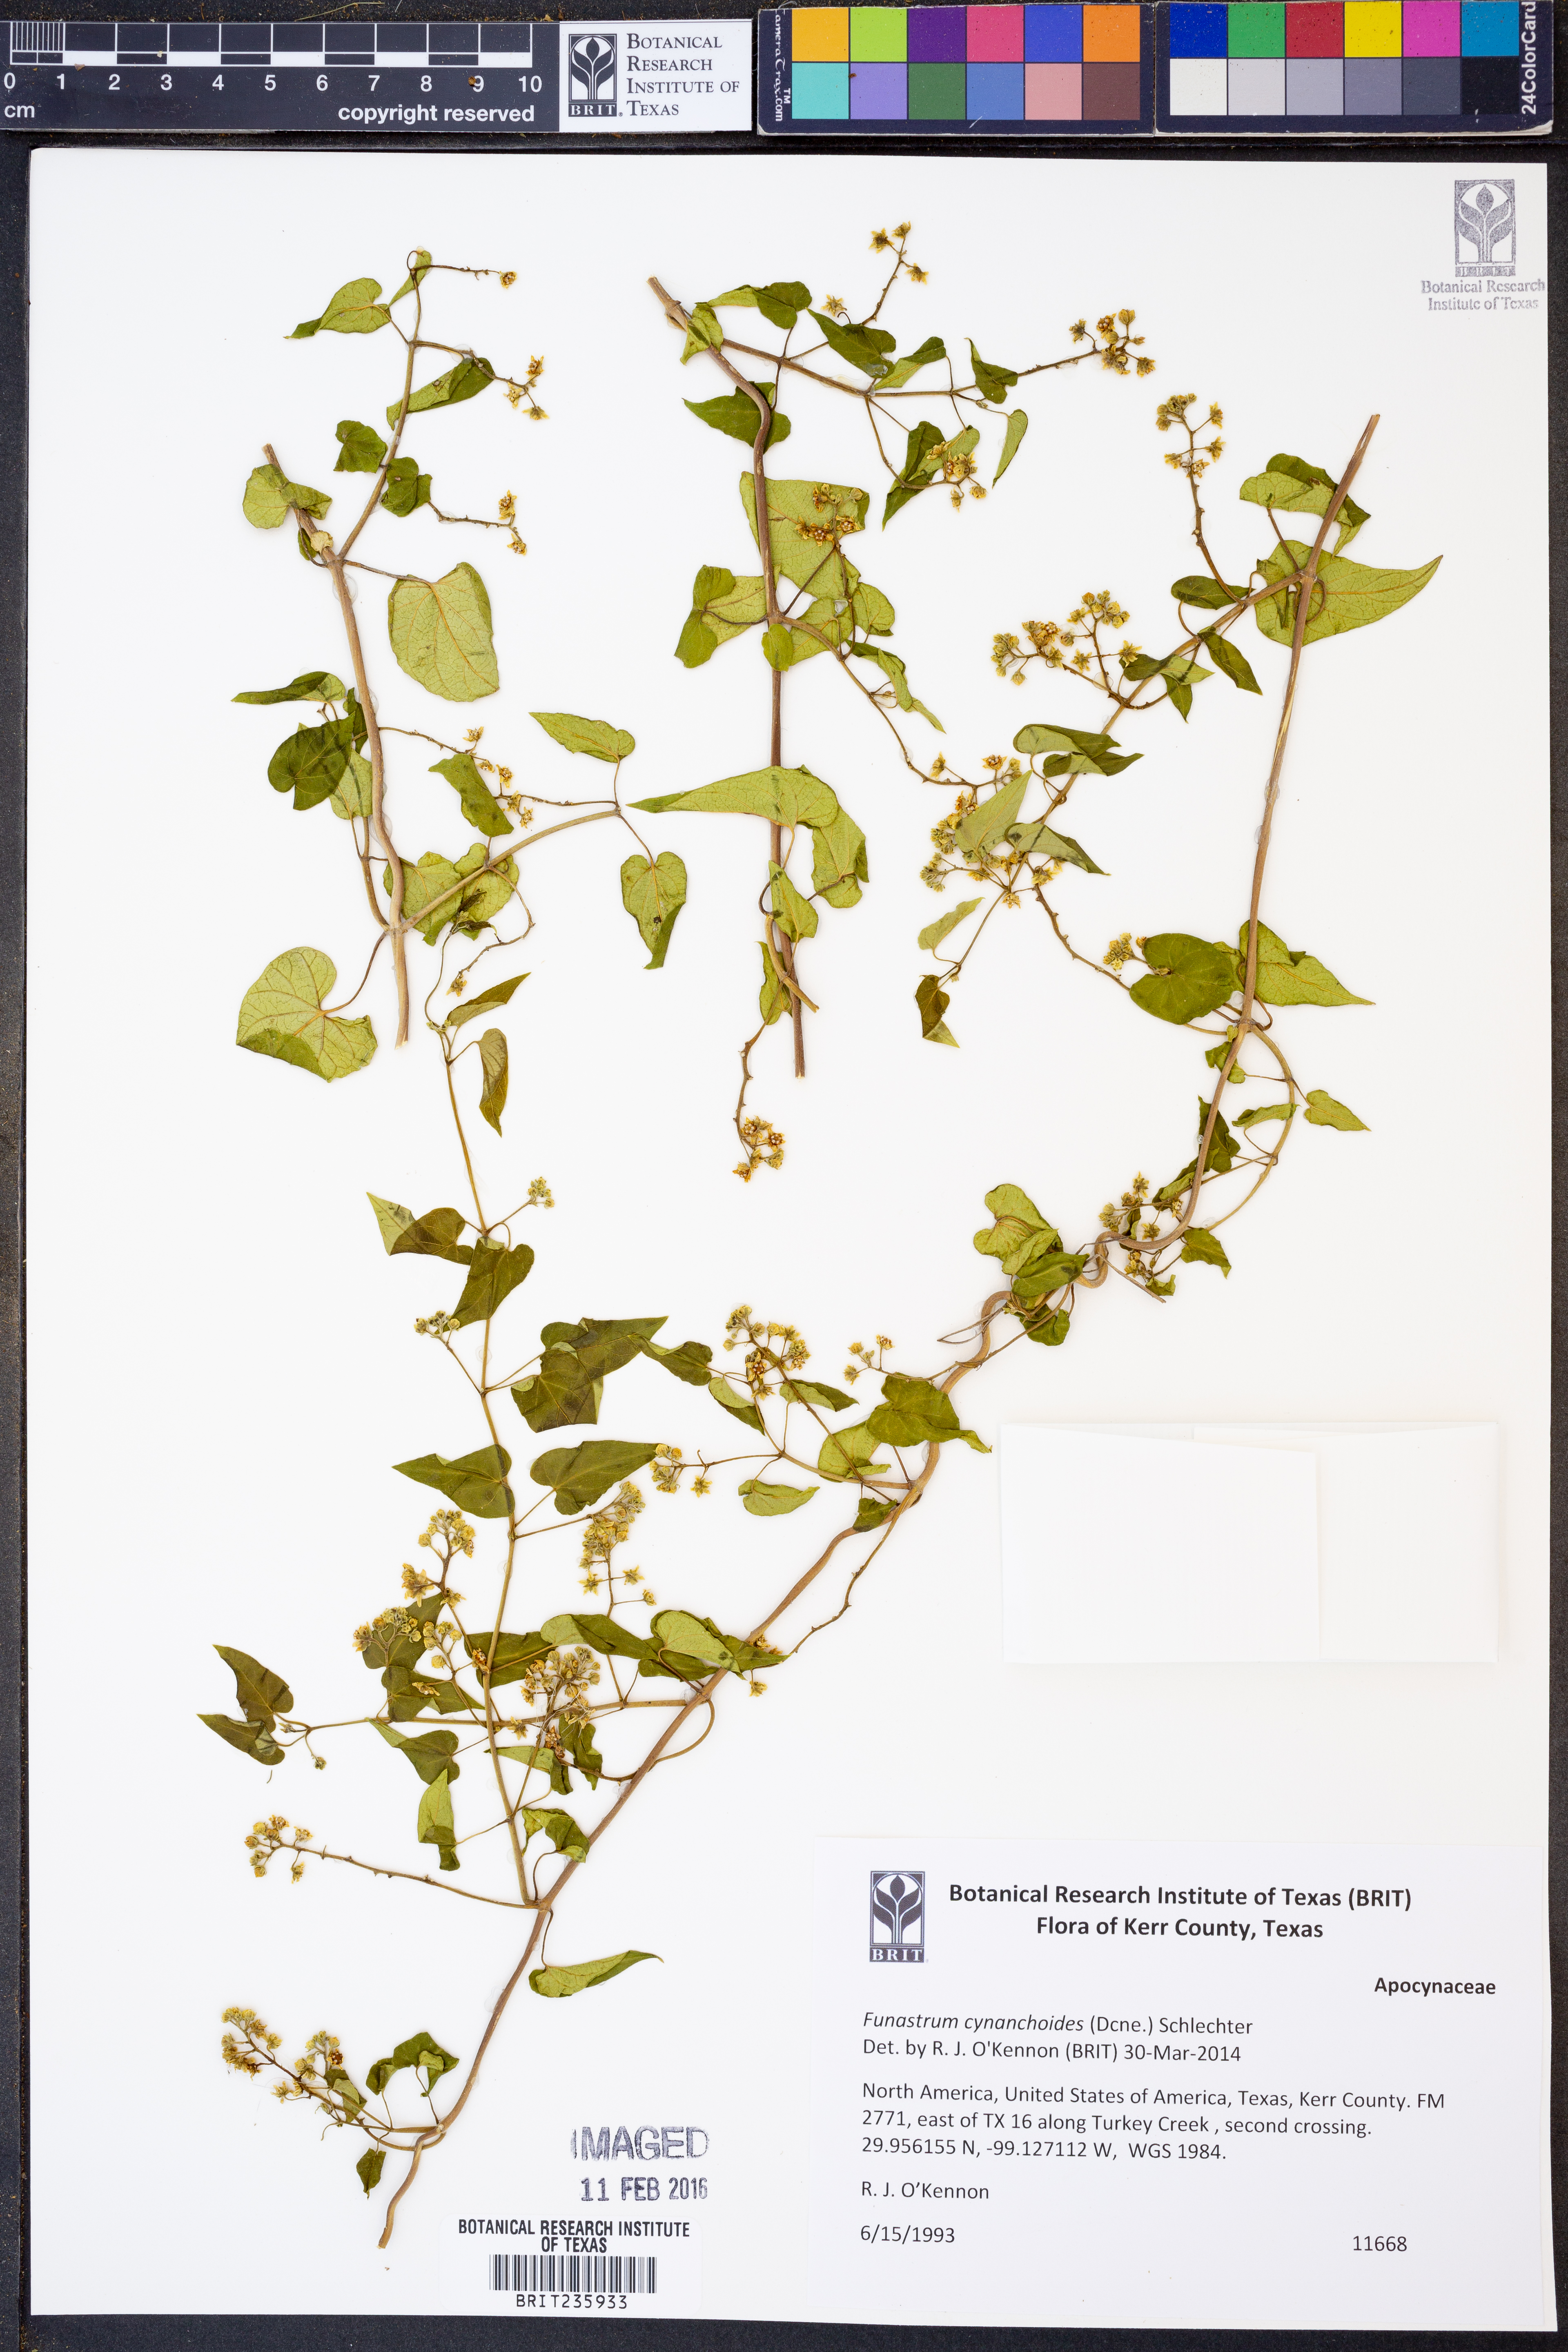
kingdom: Plantae
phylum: Tracheophyta
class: Magnoliopsida
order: Gentianales
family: Apocynaceae
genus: Funastrum
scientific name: Funastrum cynanchoides
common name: Climbing-milkweed
